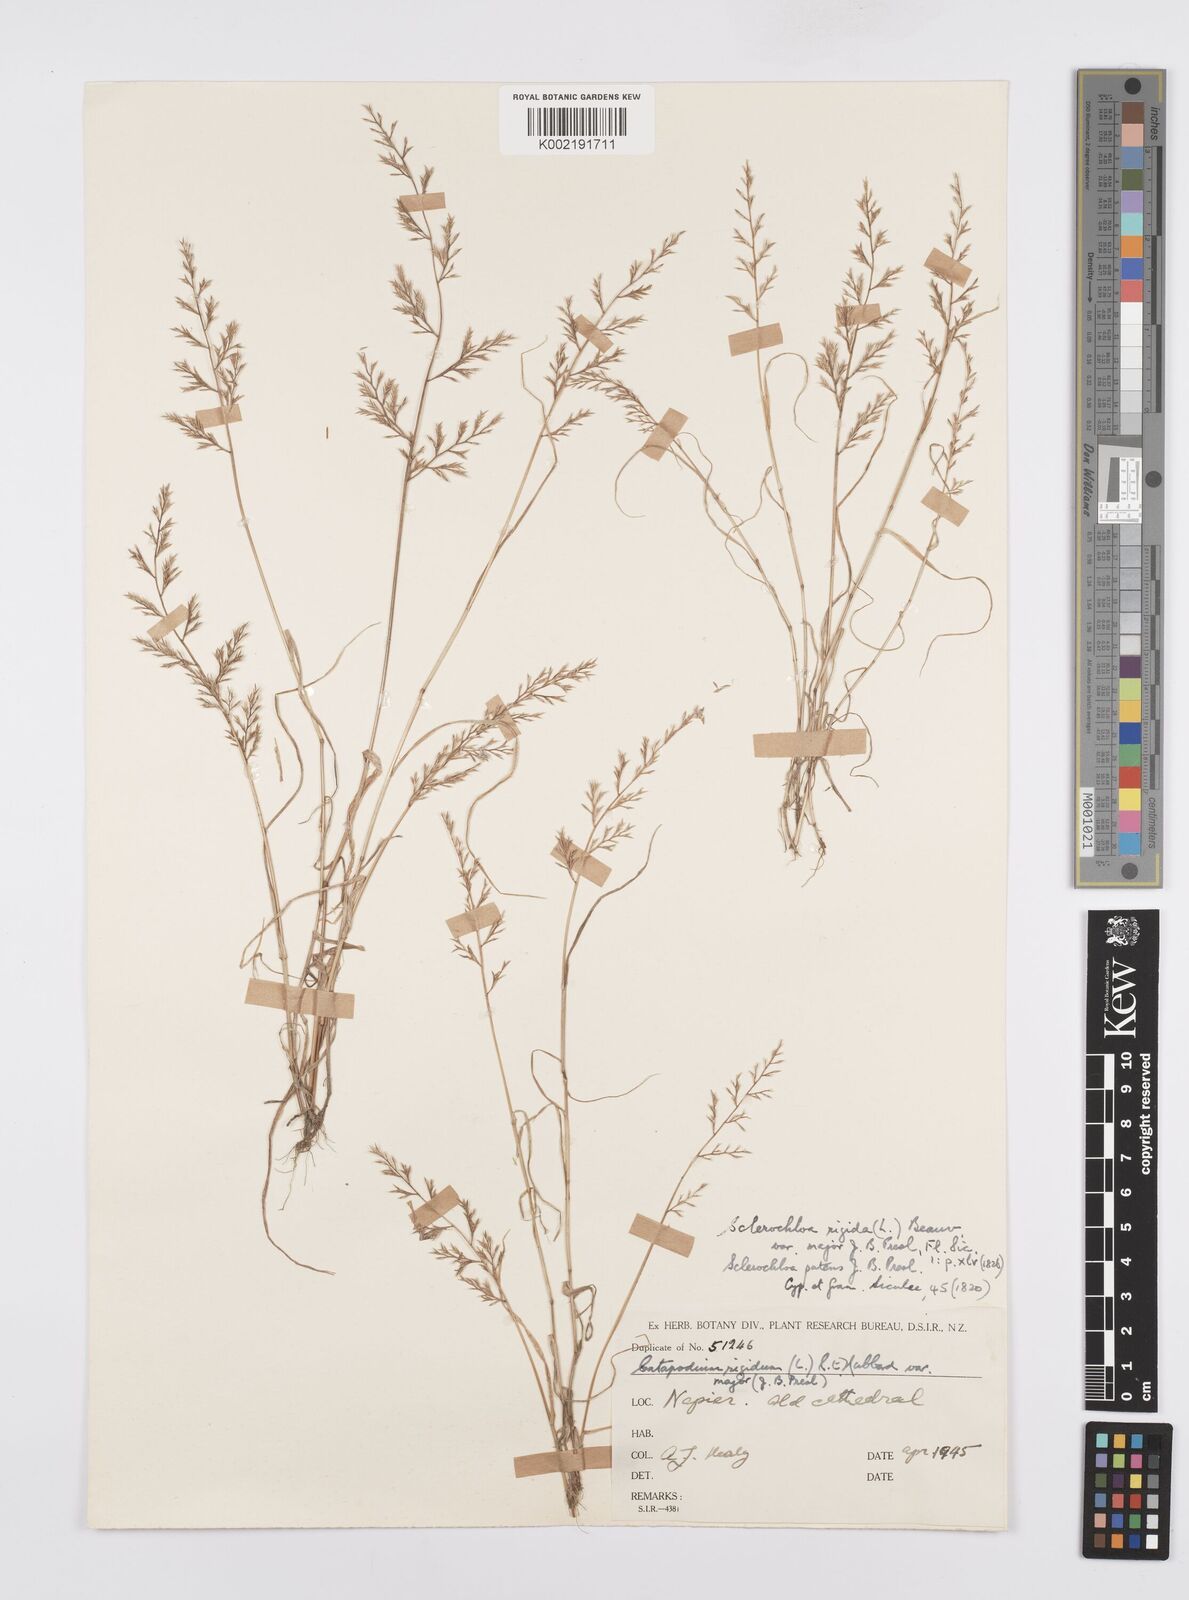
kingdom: Plantae
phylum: Tracheophyta
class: Liliopsida
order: Poales
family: Poaceae
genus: Catapodium
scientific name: Catapodium rigidum
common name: Fern-grass
